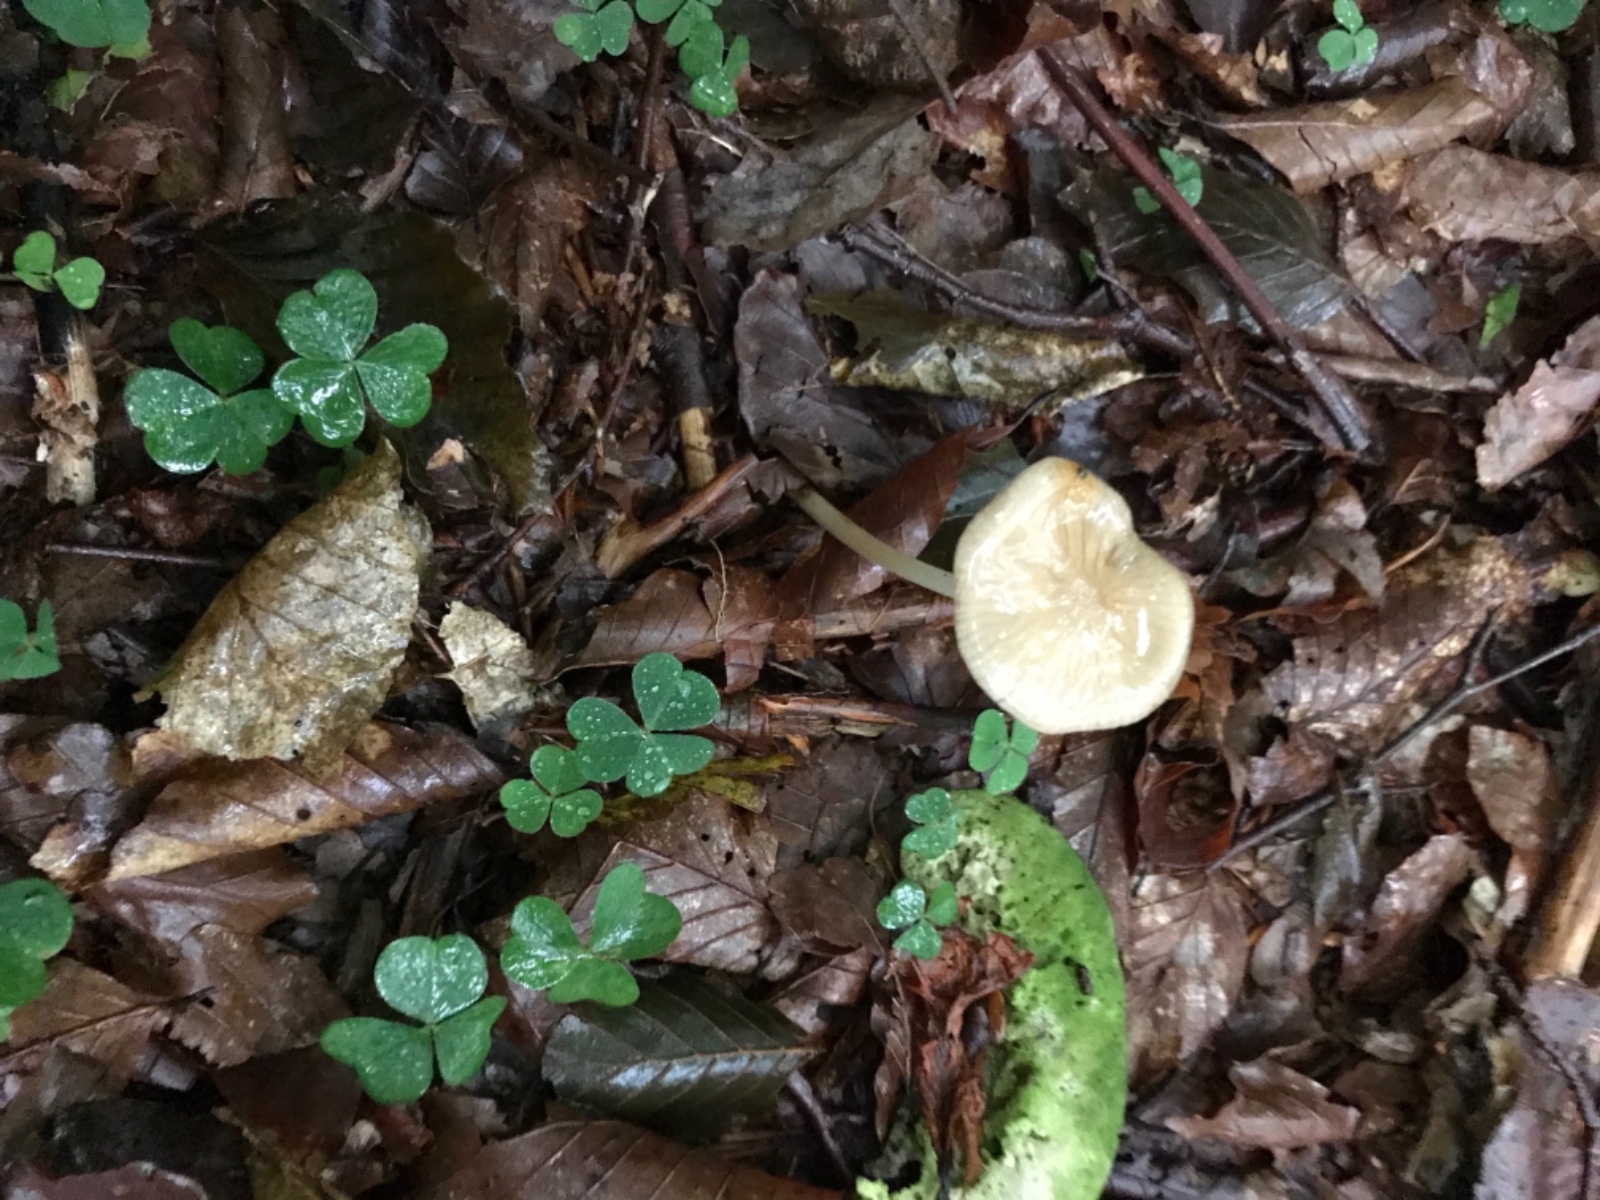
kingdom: Fungi
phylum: Basidiomycota
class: Agaricomycetes
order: Agaricales
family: Physalacriaceae
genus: Hymenopellis
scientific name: Hymenopellis radicata
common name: almindelig pælerodshat
